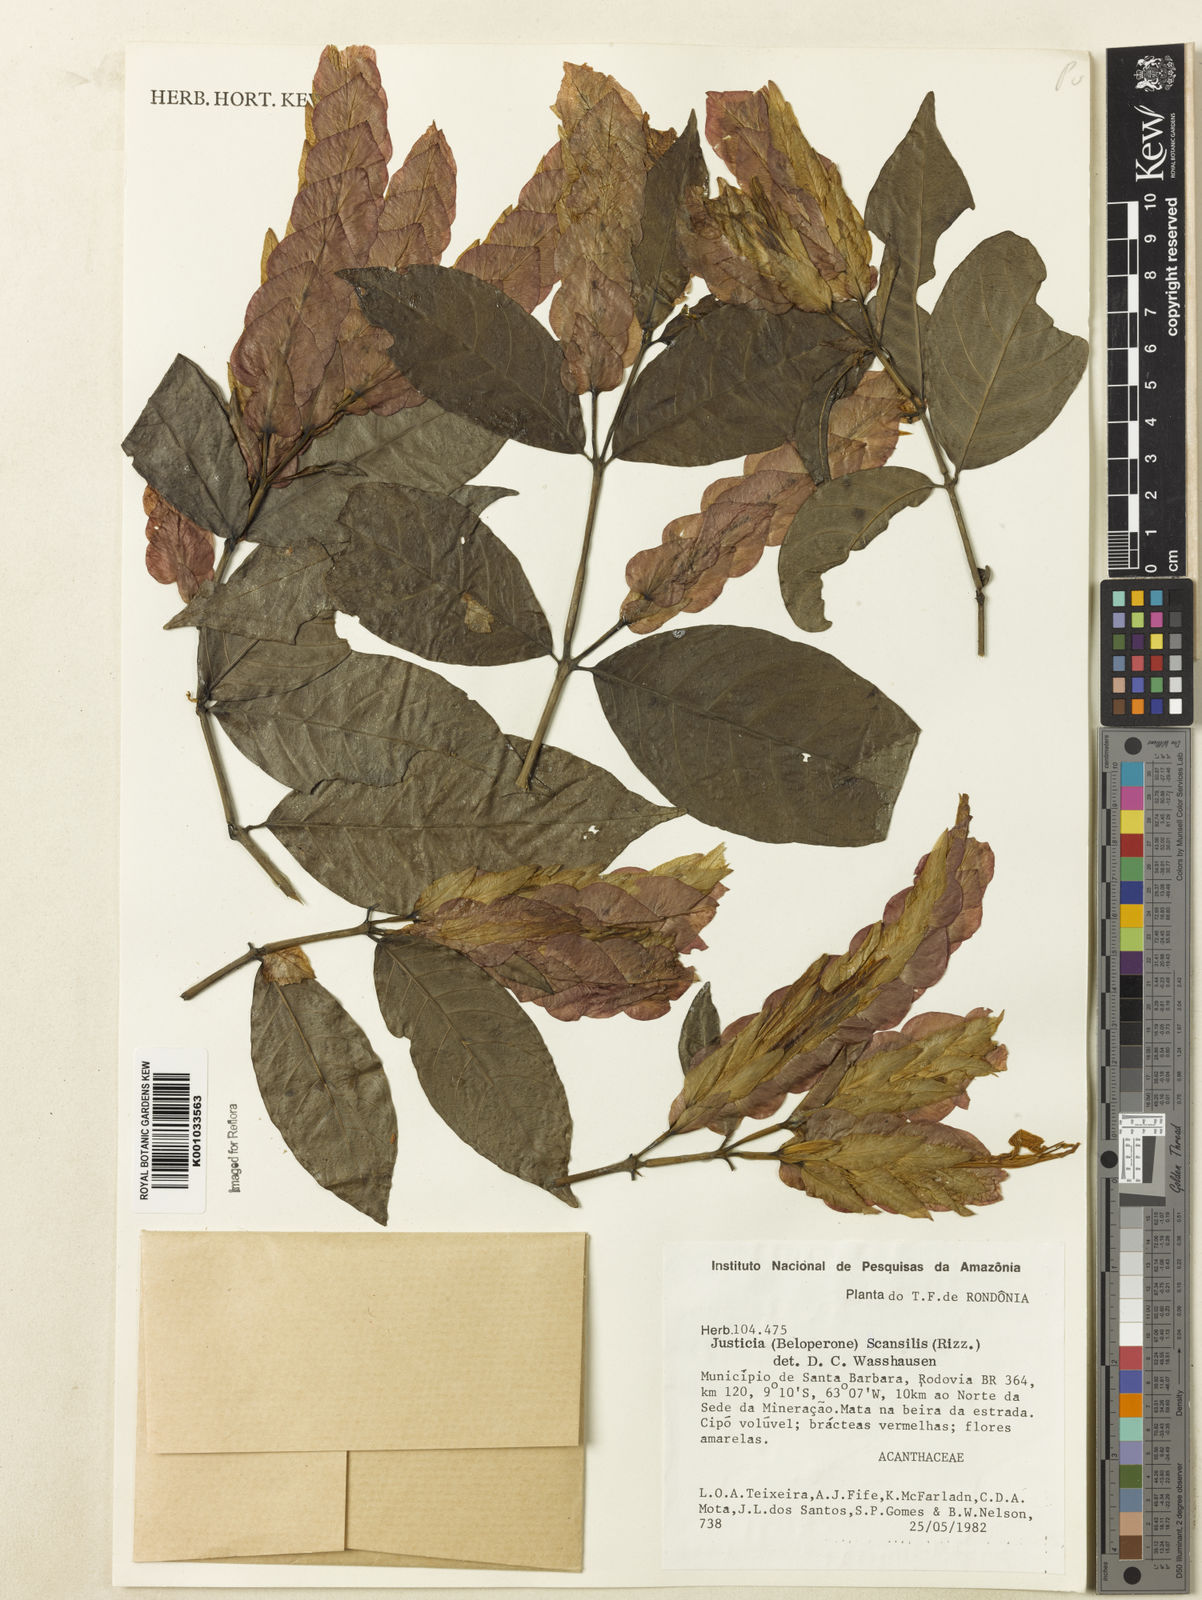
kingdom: Plantae
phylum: Tracheophyta
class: Magnoliopsida
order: Lamiales
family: Acanthaceae
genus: Justicia
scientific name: Justicia scansilis
